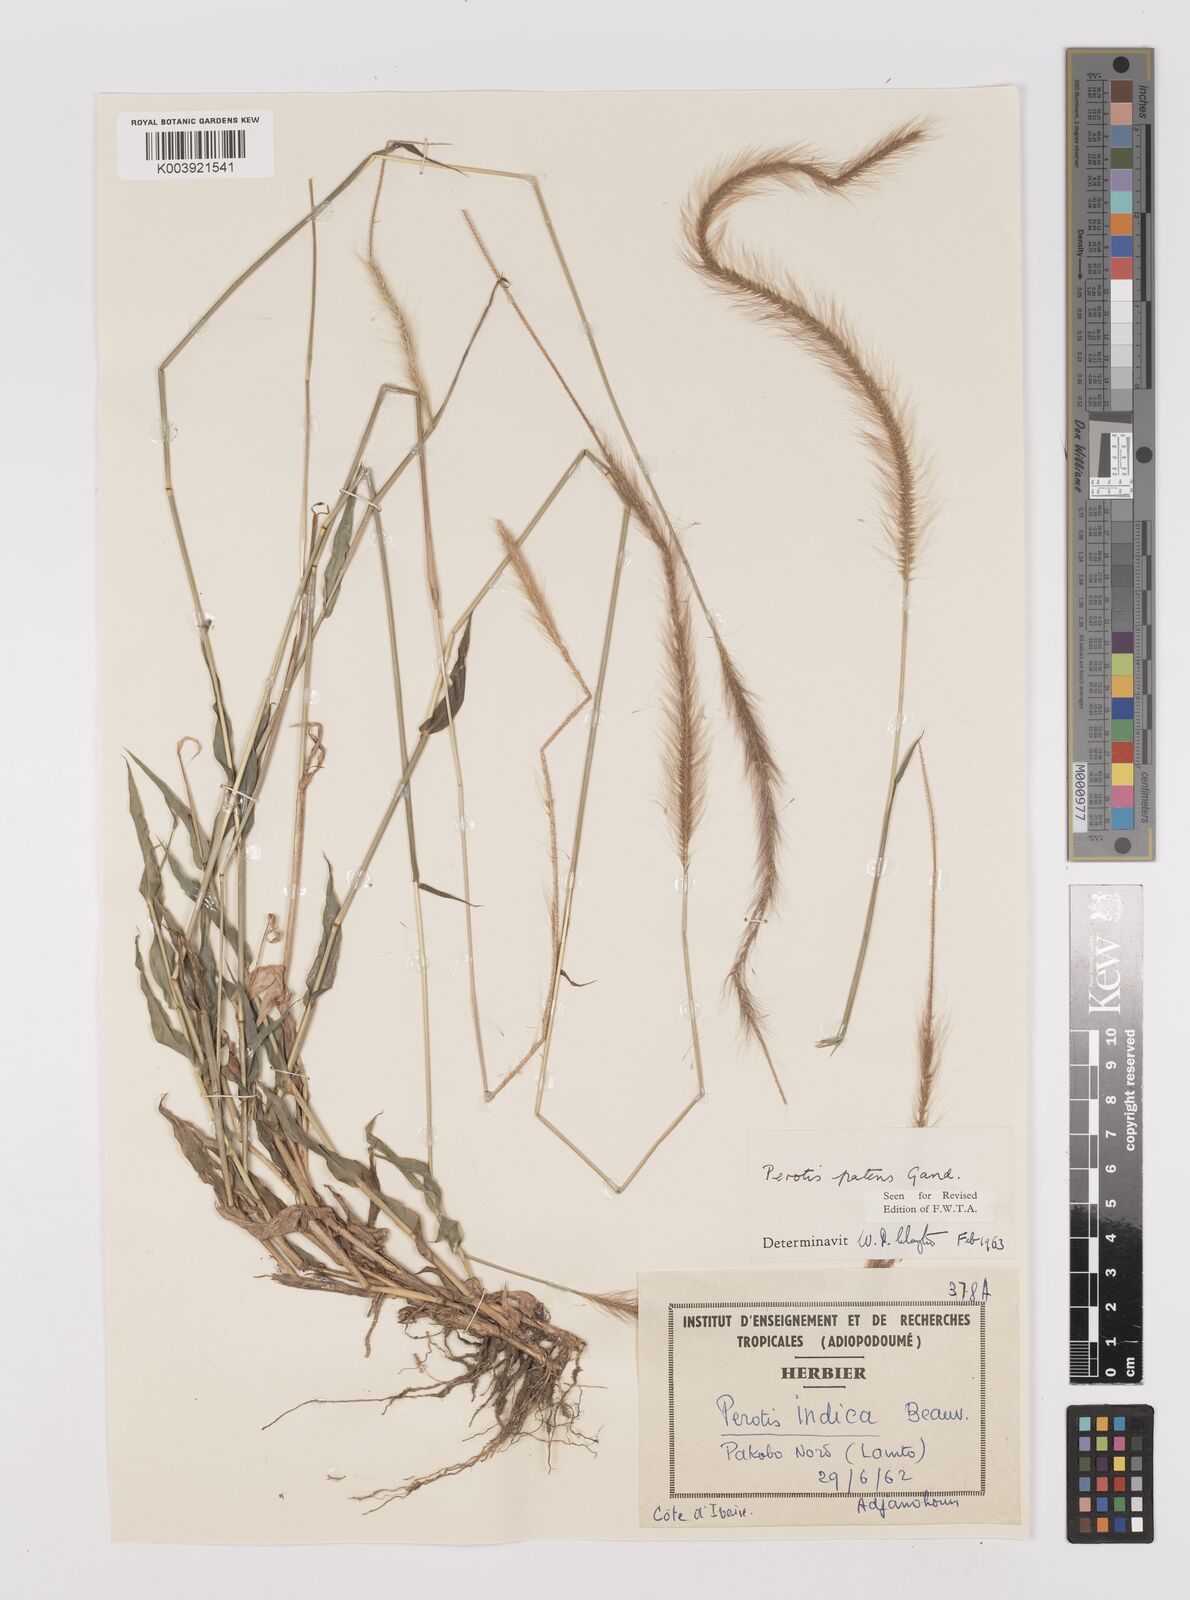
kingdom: Plantae
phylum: Tracheophyta
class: Liliopsida
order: Poales
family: Poaceae
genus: Perotis
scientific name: Perotis patens
